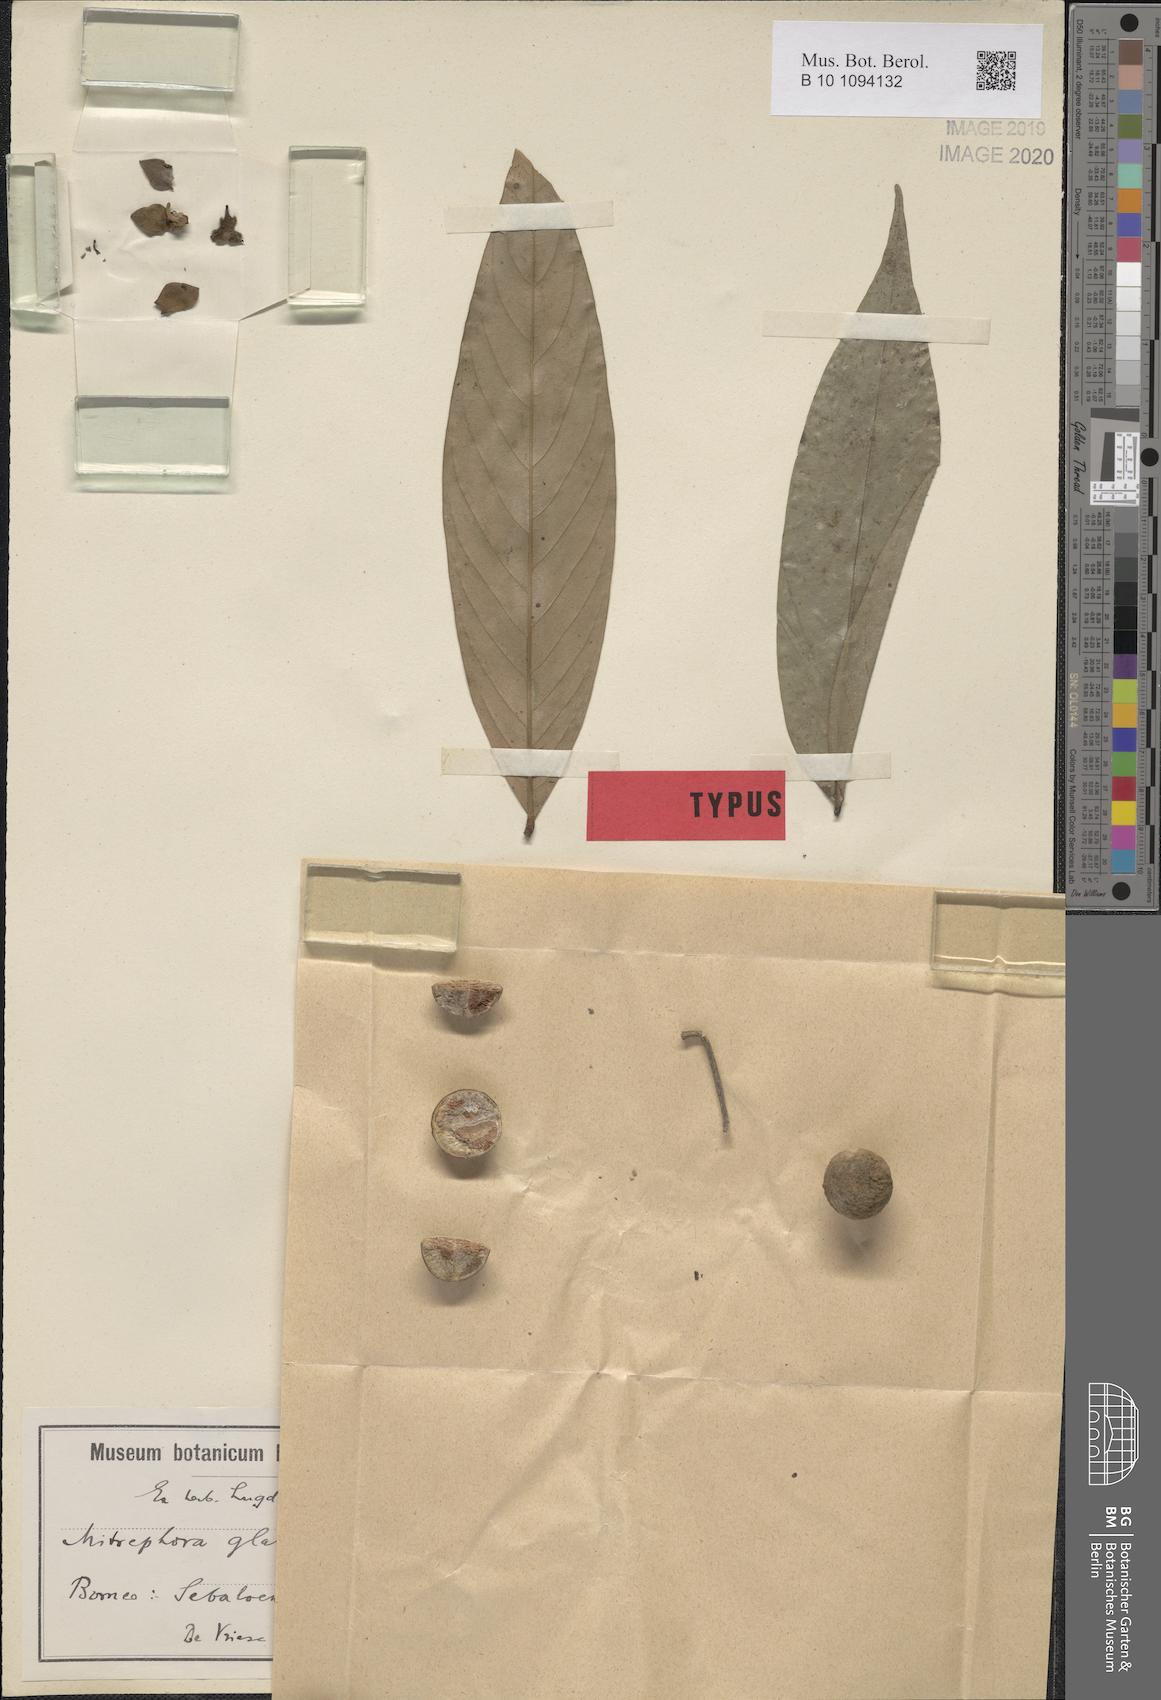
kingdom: Plantae
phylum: Tracheophyta
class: Magnoliopsida
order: Magnoliales
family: Annonaceae
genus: Mitrephora
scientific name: Mitrephora glabra
